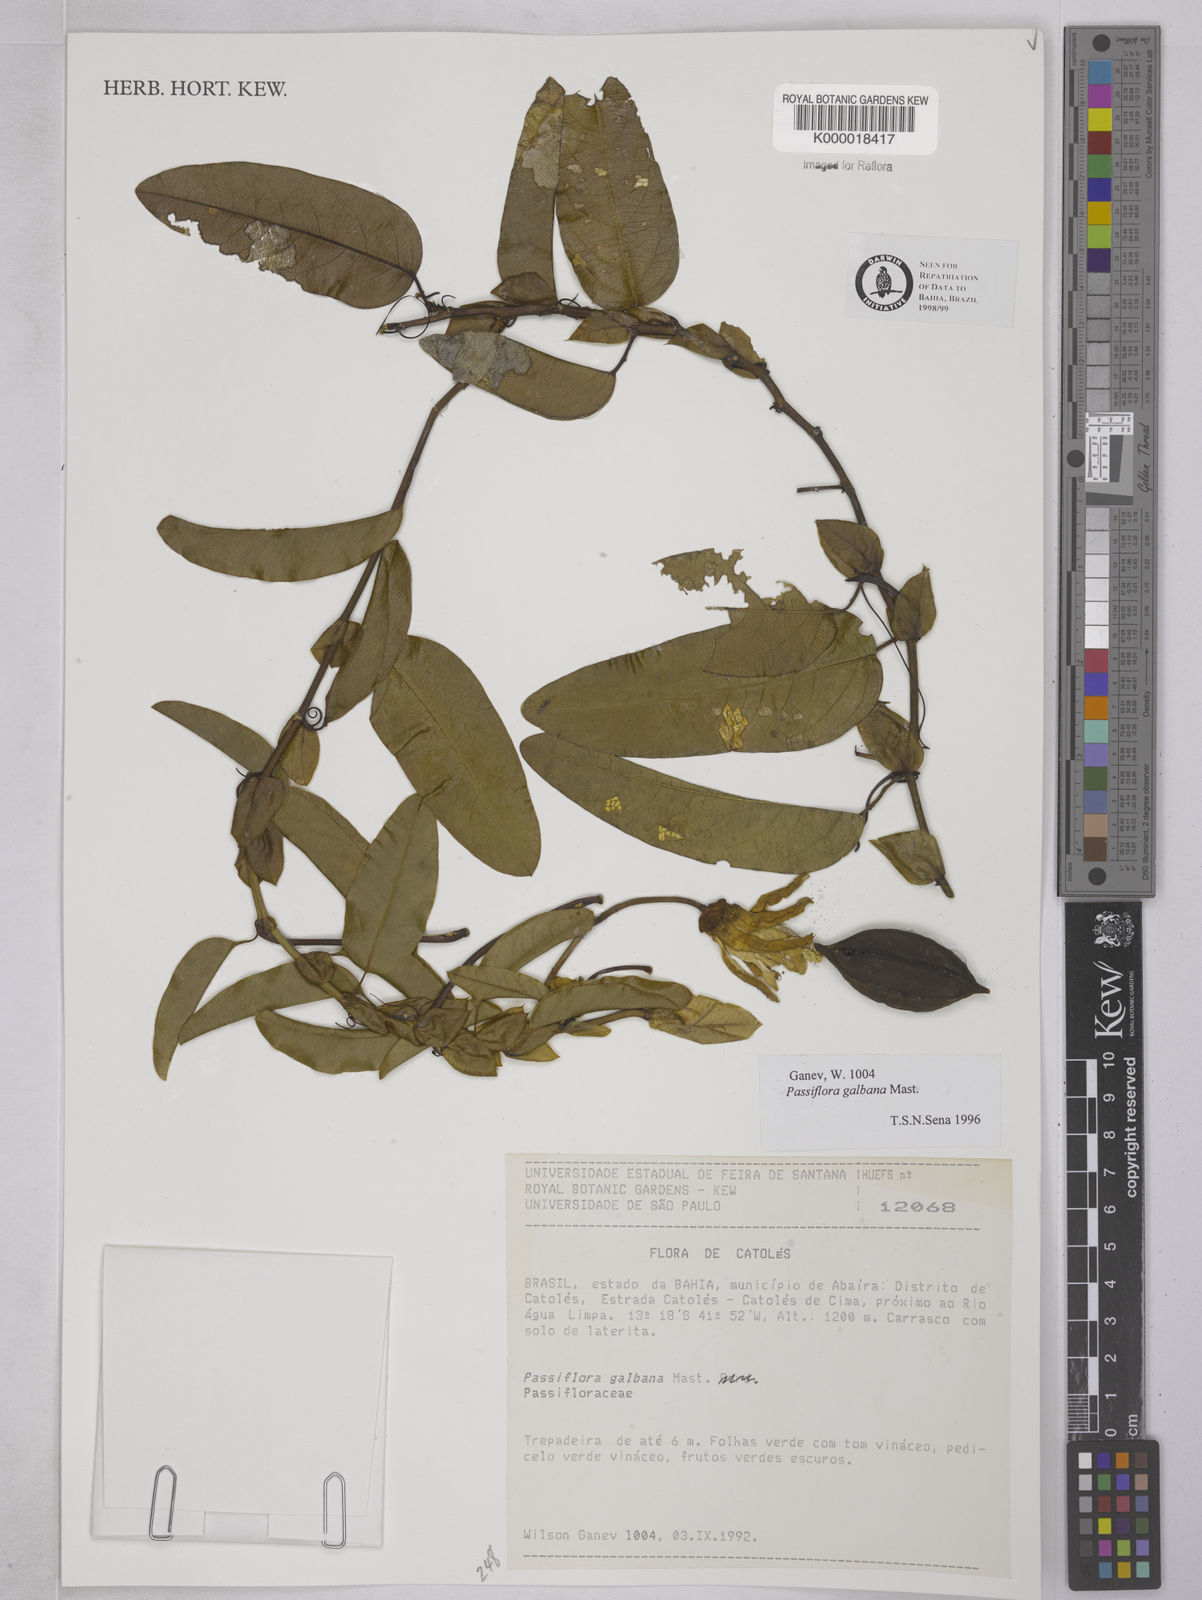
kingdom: Plantae
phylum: Tracheophyta
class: Magnoliopsida
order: Malpighiales
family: Passifloraceae
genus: Passiflora
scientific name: Passiflora silvestris
